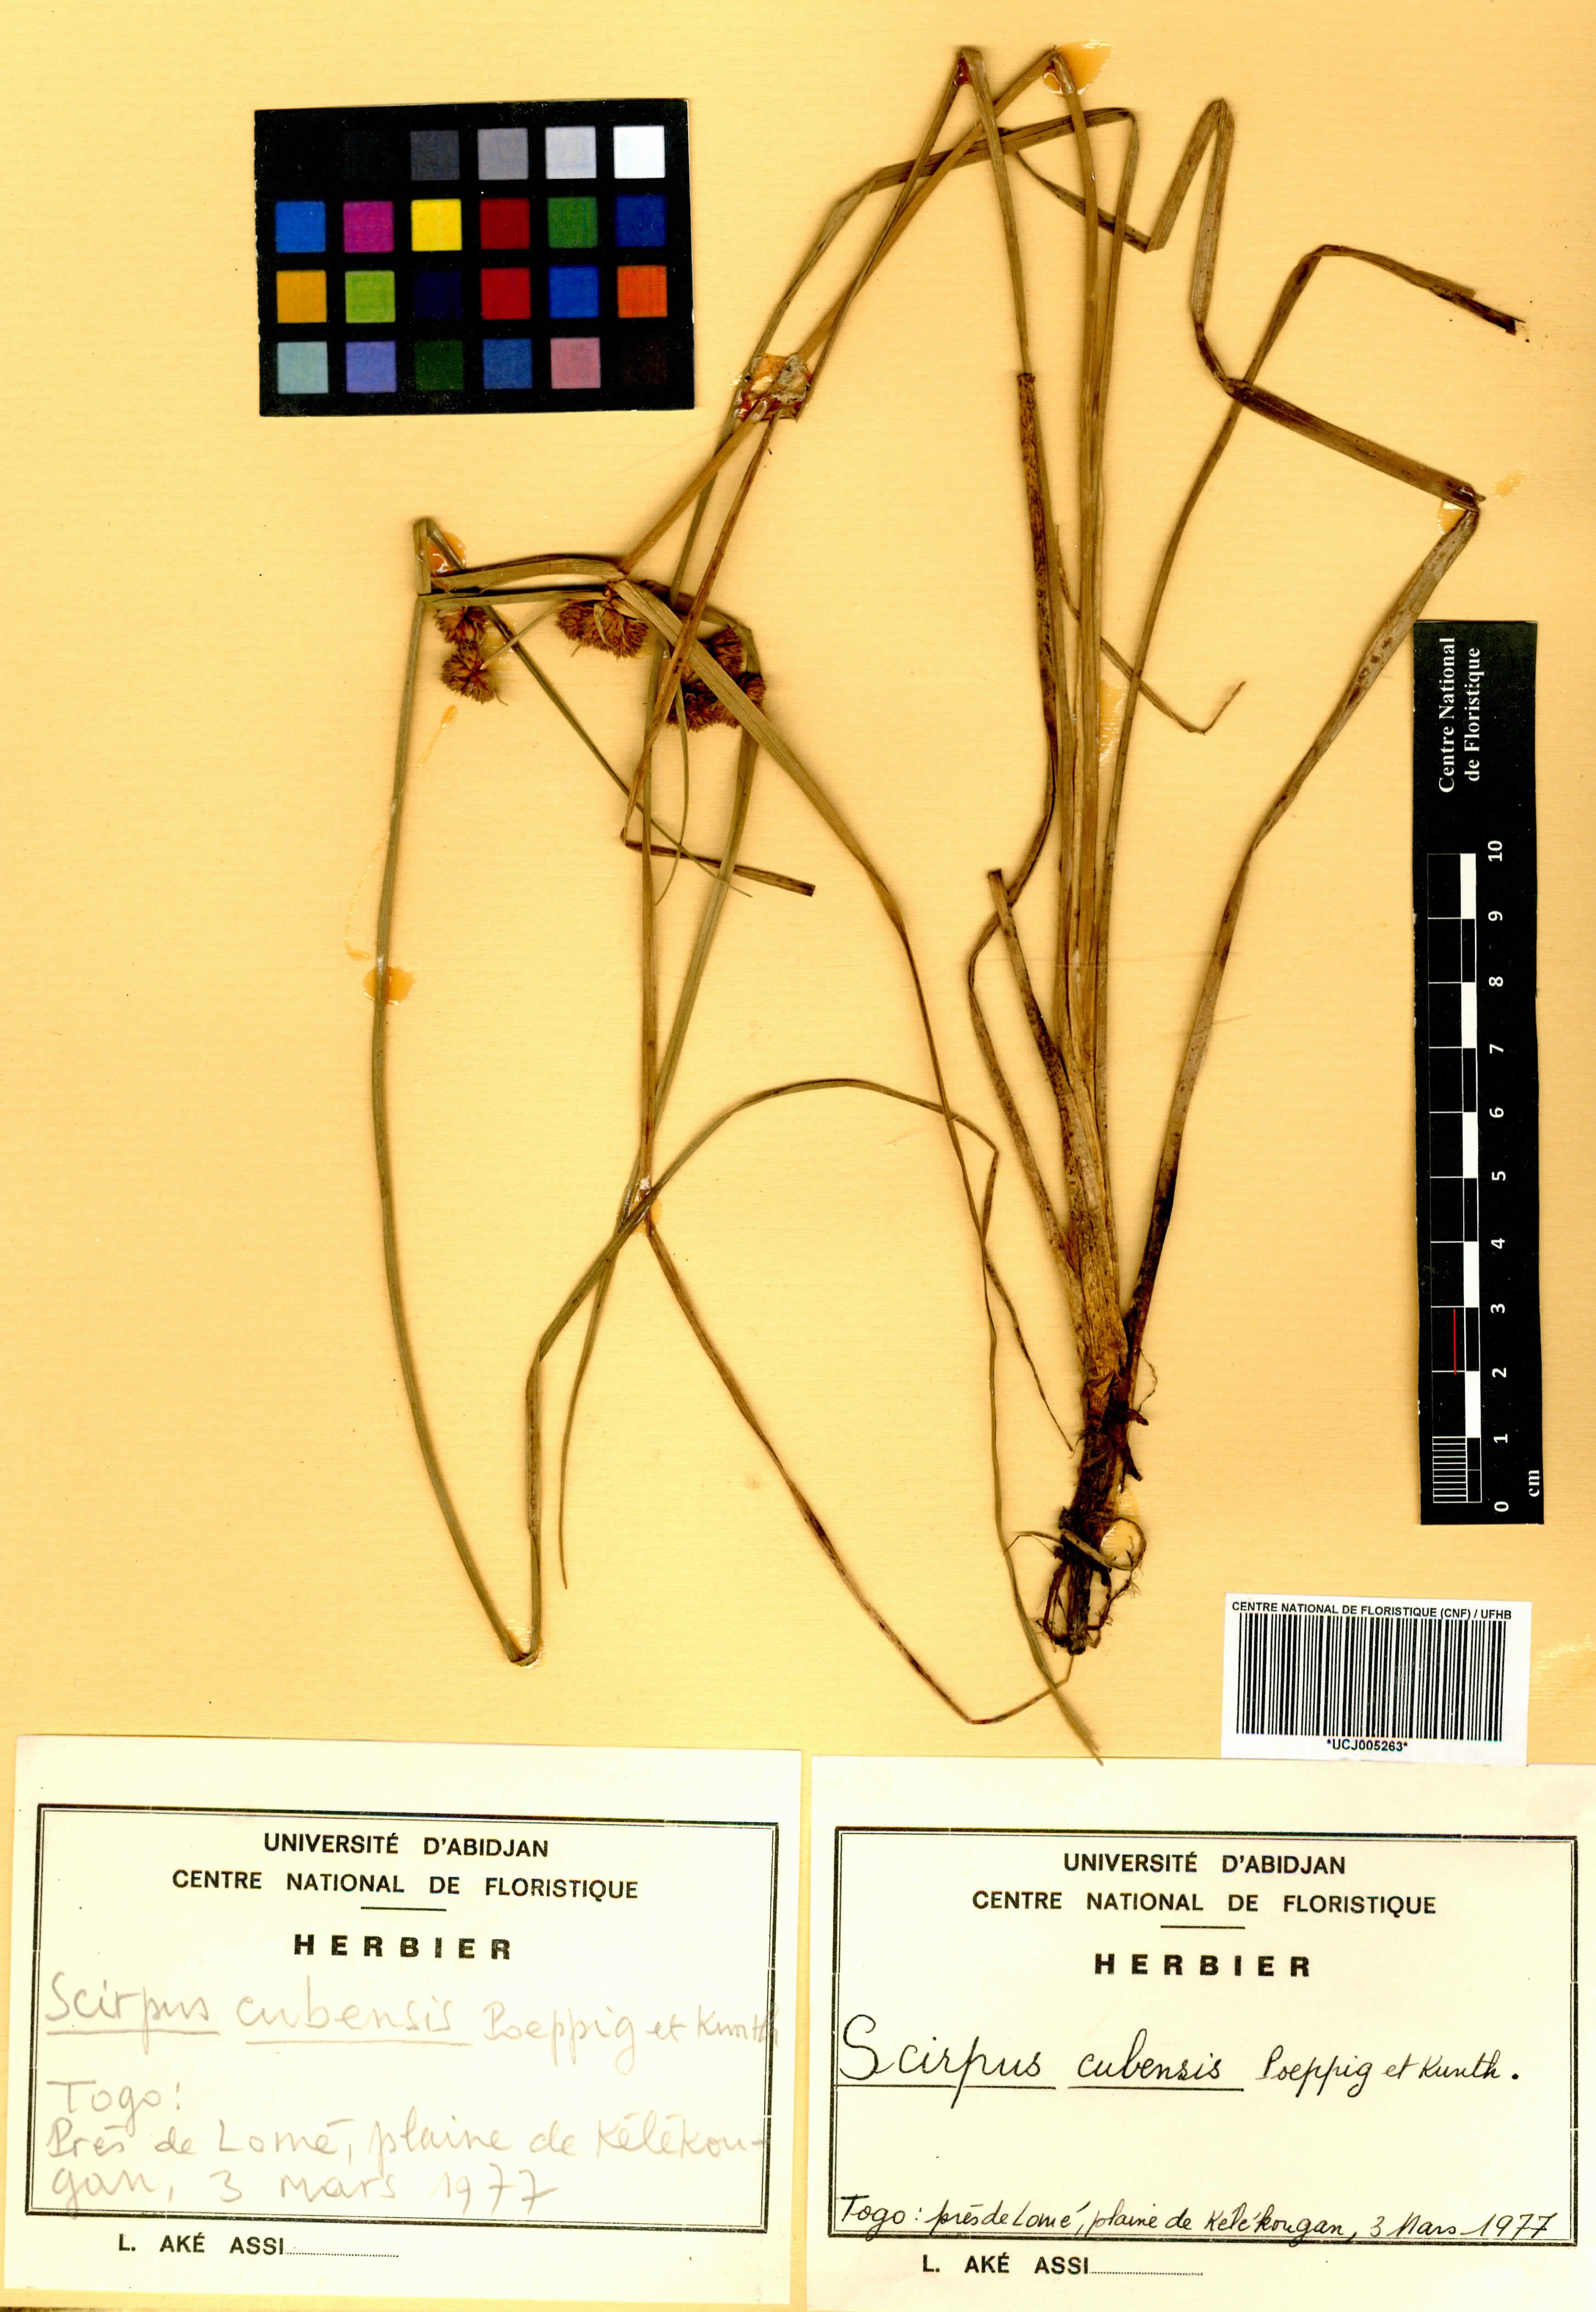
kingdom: Plantae
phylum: Tracheophyta
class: Liliopsida
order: Poales
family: Cyperaceae
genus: Cyperus
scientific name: Cyperus blepharoleptos
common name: Cuban bulrush
